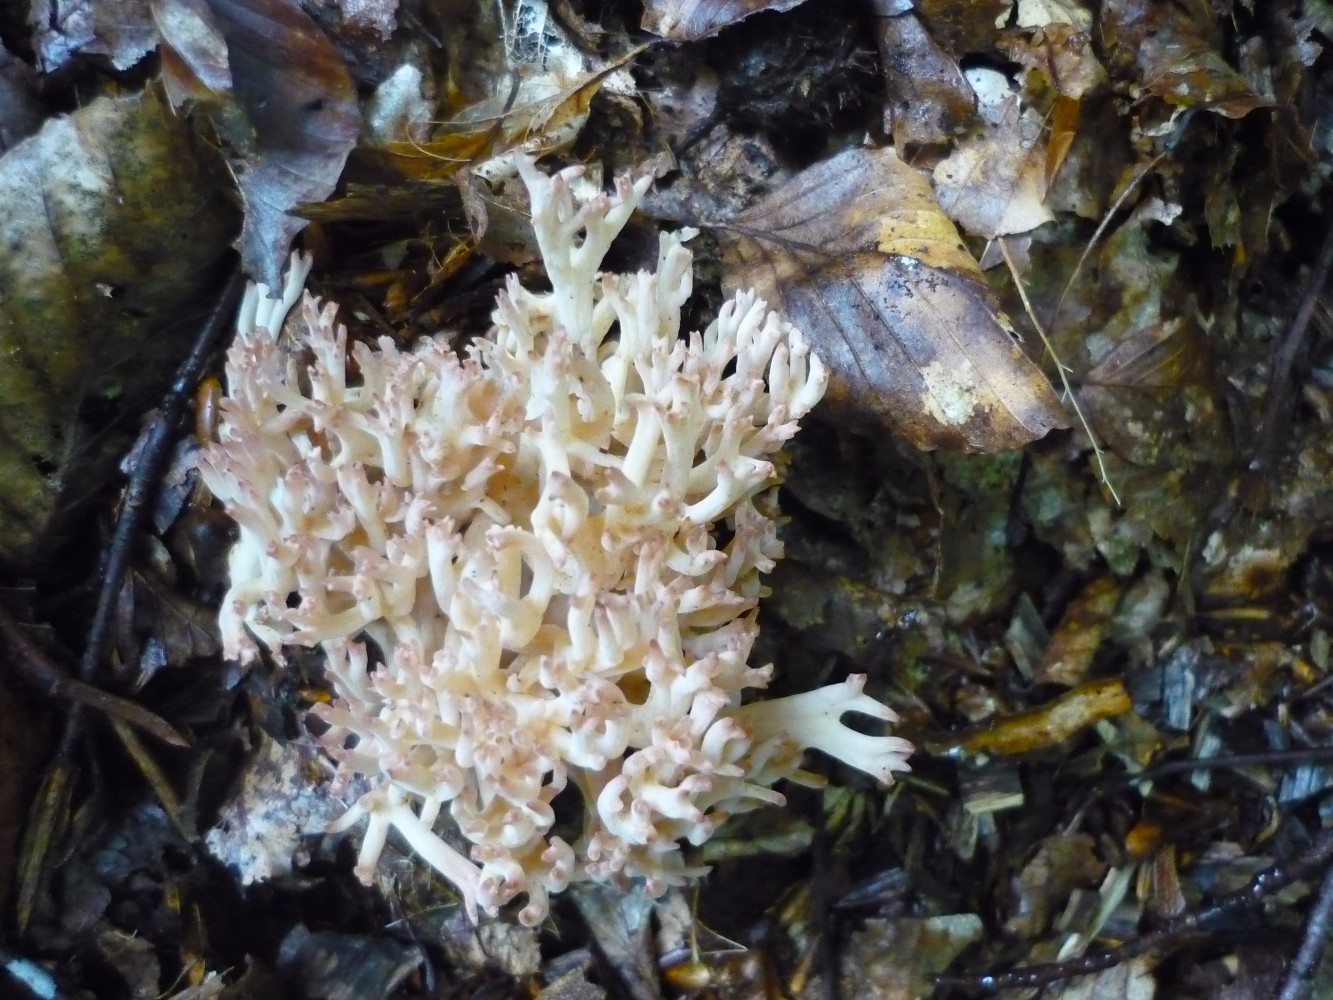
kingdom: Fungi
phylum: Basidiomycota
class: Agaricomycetes
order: Gomphales
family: Gomphaceae
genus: Ramaria
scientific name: Ramaria botrytis
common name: drue-koralsvamp
